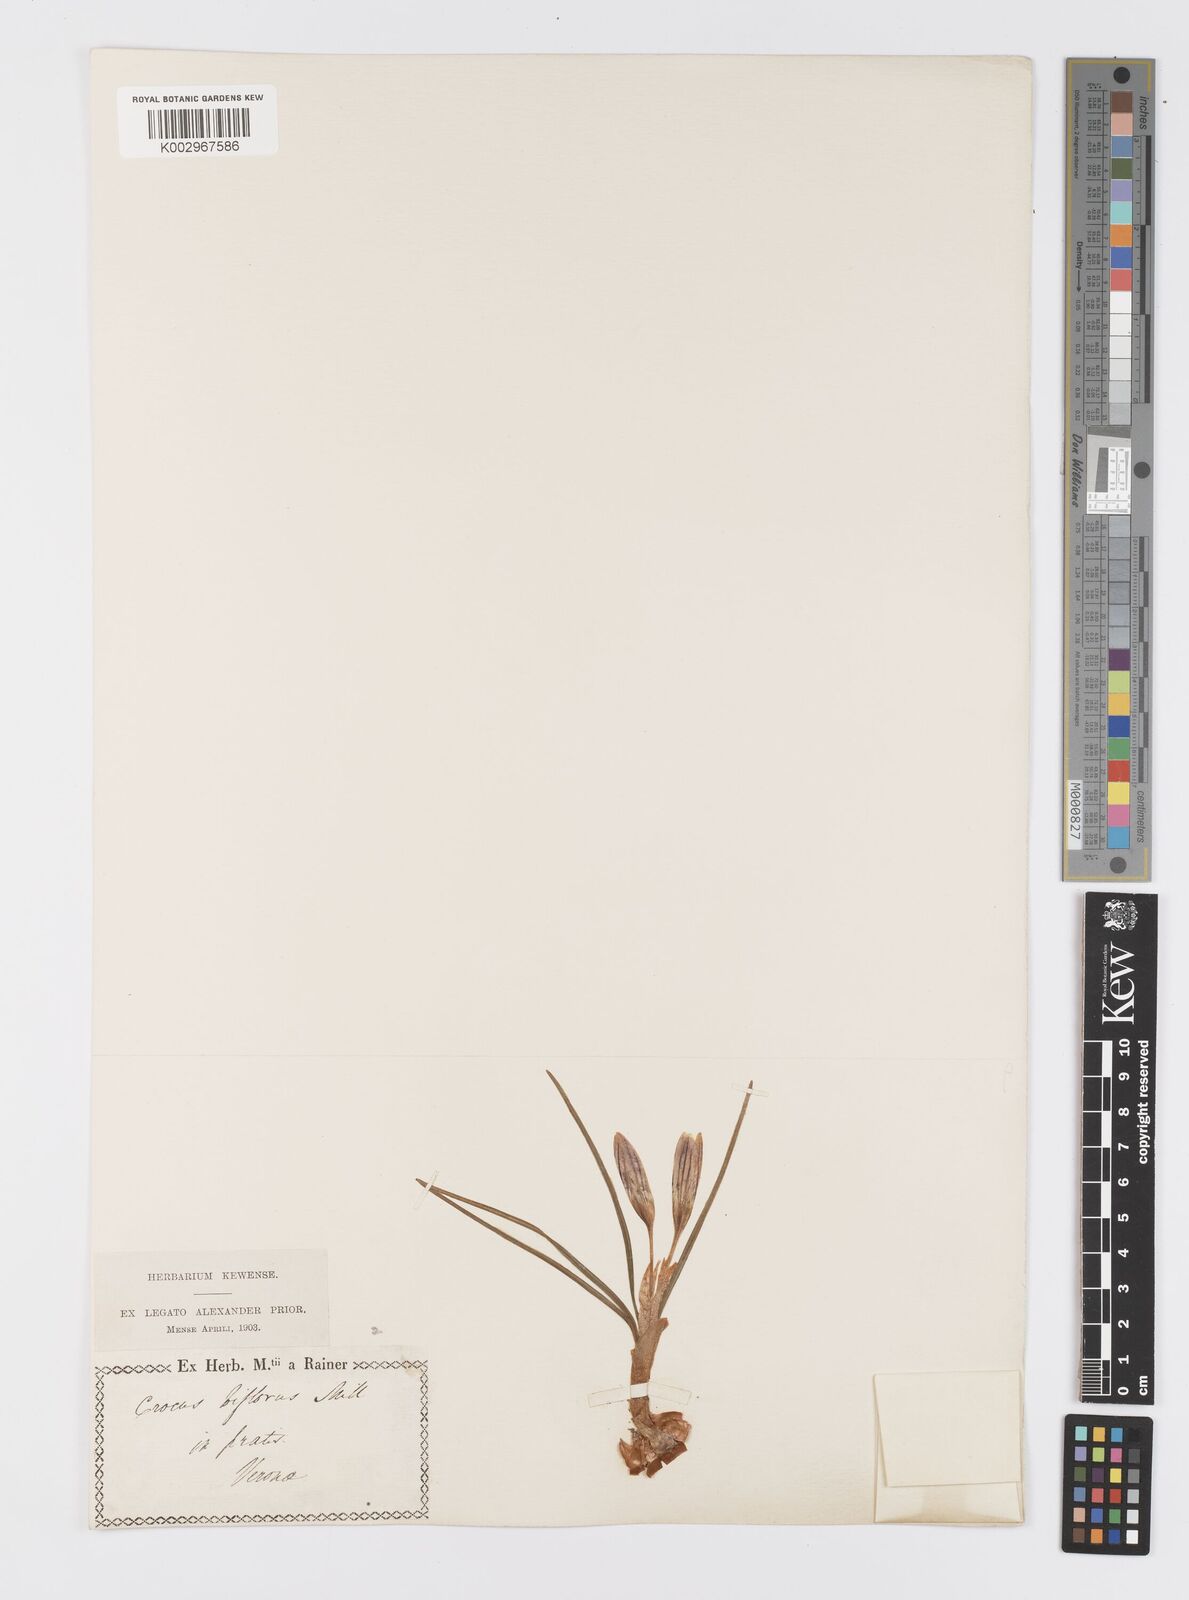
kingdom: Plantae
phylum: Tracheophyta
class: Liliopsida
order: Asparagales
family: Iridaceae
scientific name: Iridaceae
